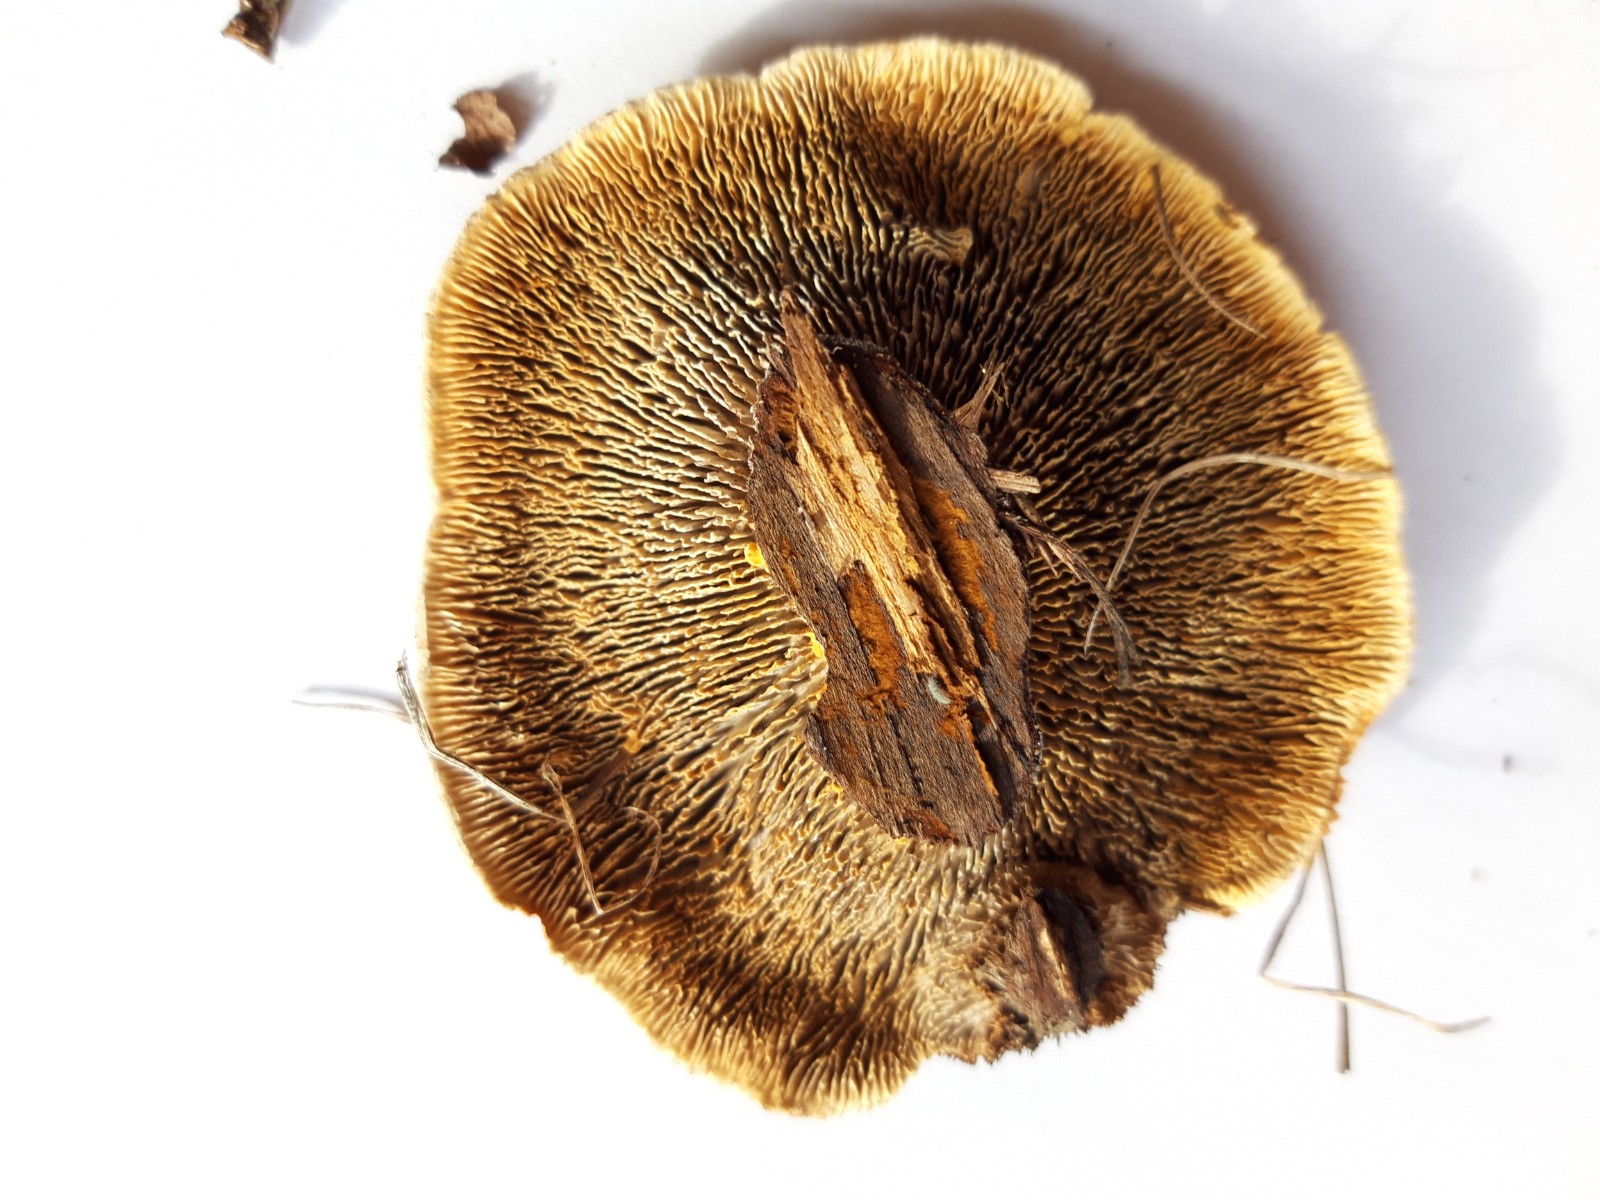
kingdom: Fungi
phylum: Basidiomycota
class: Agaricomycetes
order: Gloeophyllales
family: Gloeophyllaceae
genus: Gloeophyllum
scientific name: Gloeophyllum sepiarium
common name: fyrre-korkhat
